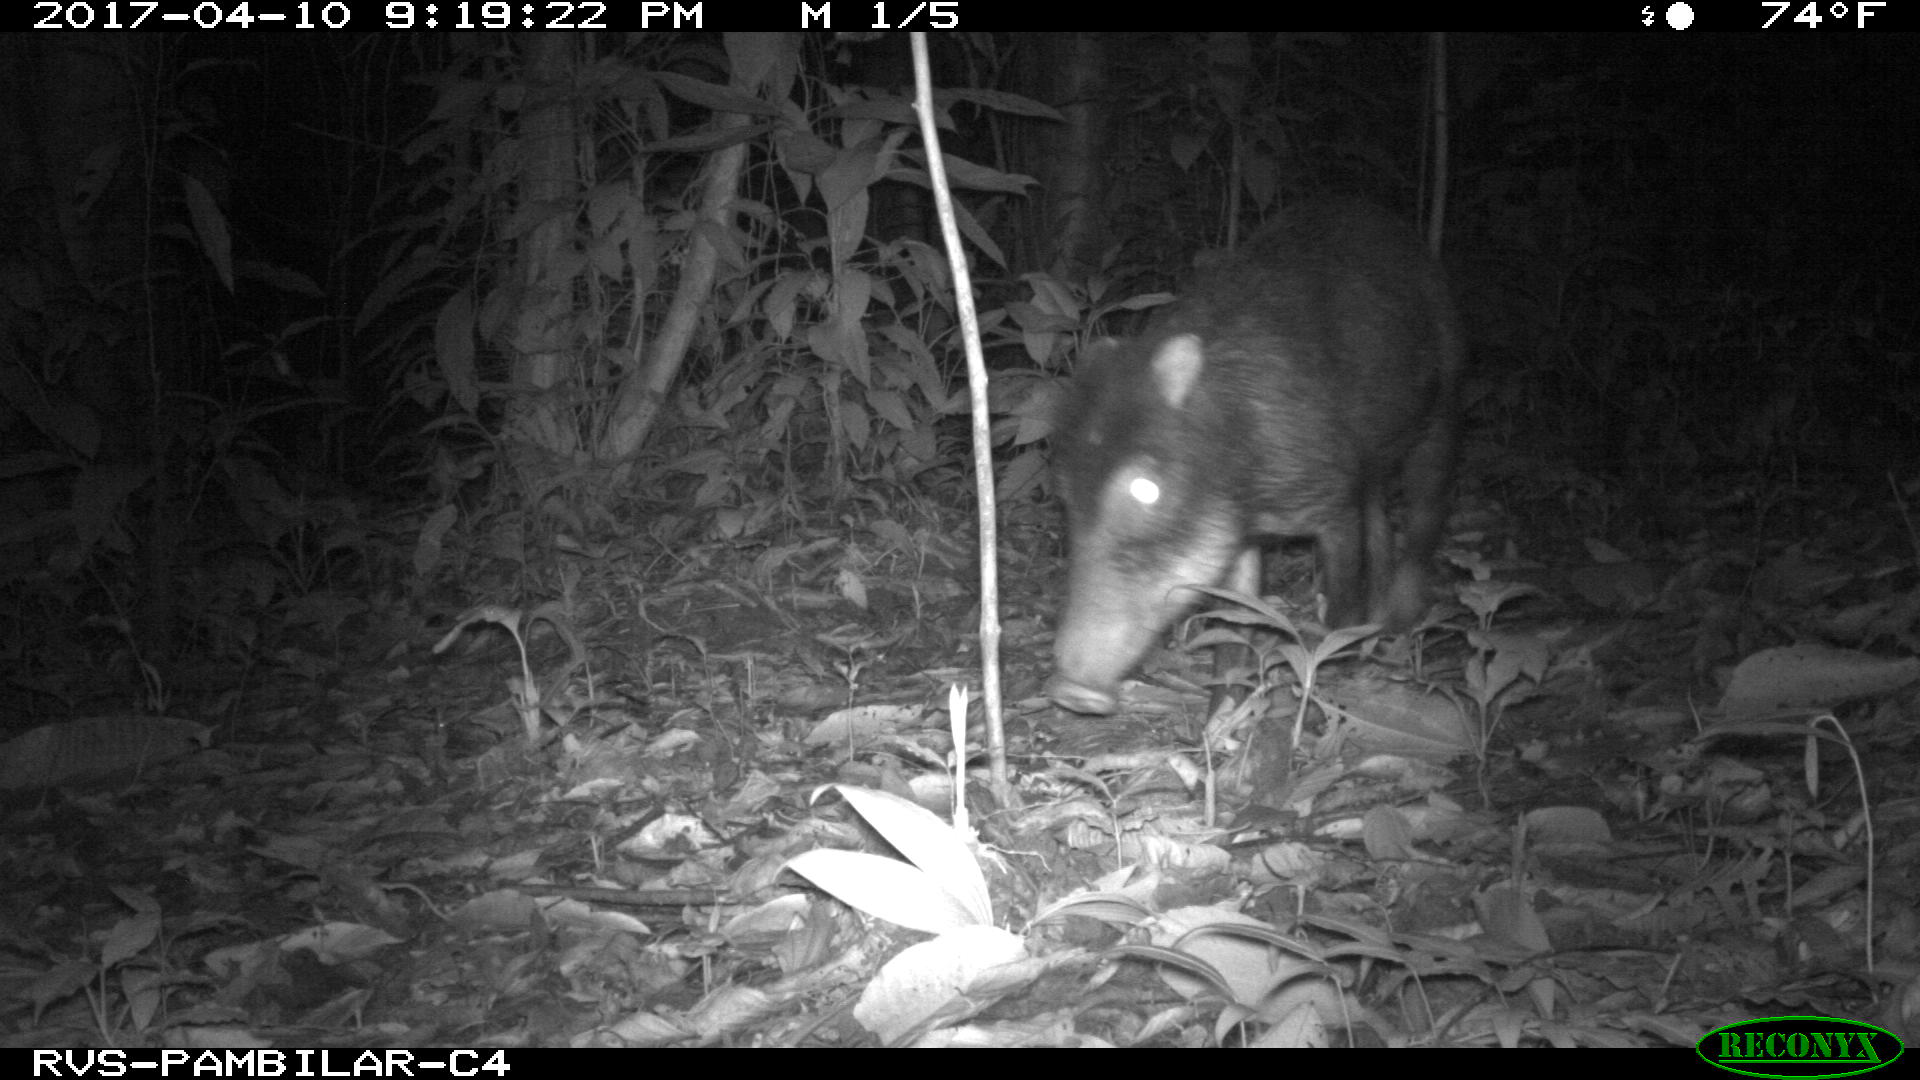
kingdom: Animalia
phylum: Chordata
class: Mammalia
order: Artiodactyla
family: Tayassuidae
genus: Tayassu
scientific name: Tayassu pecari
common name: White-lipped peccary
